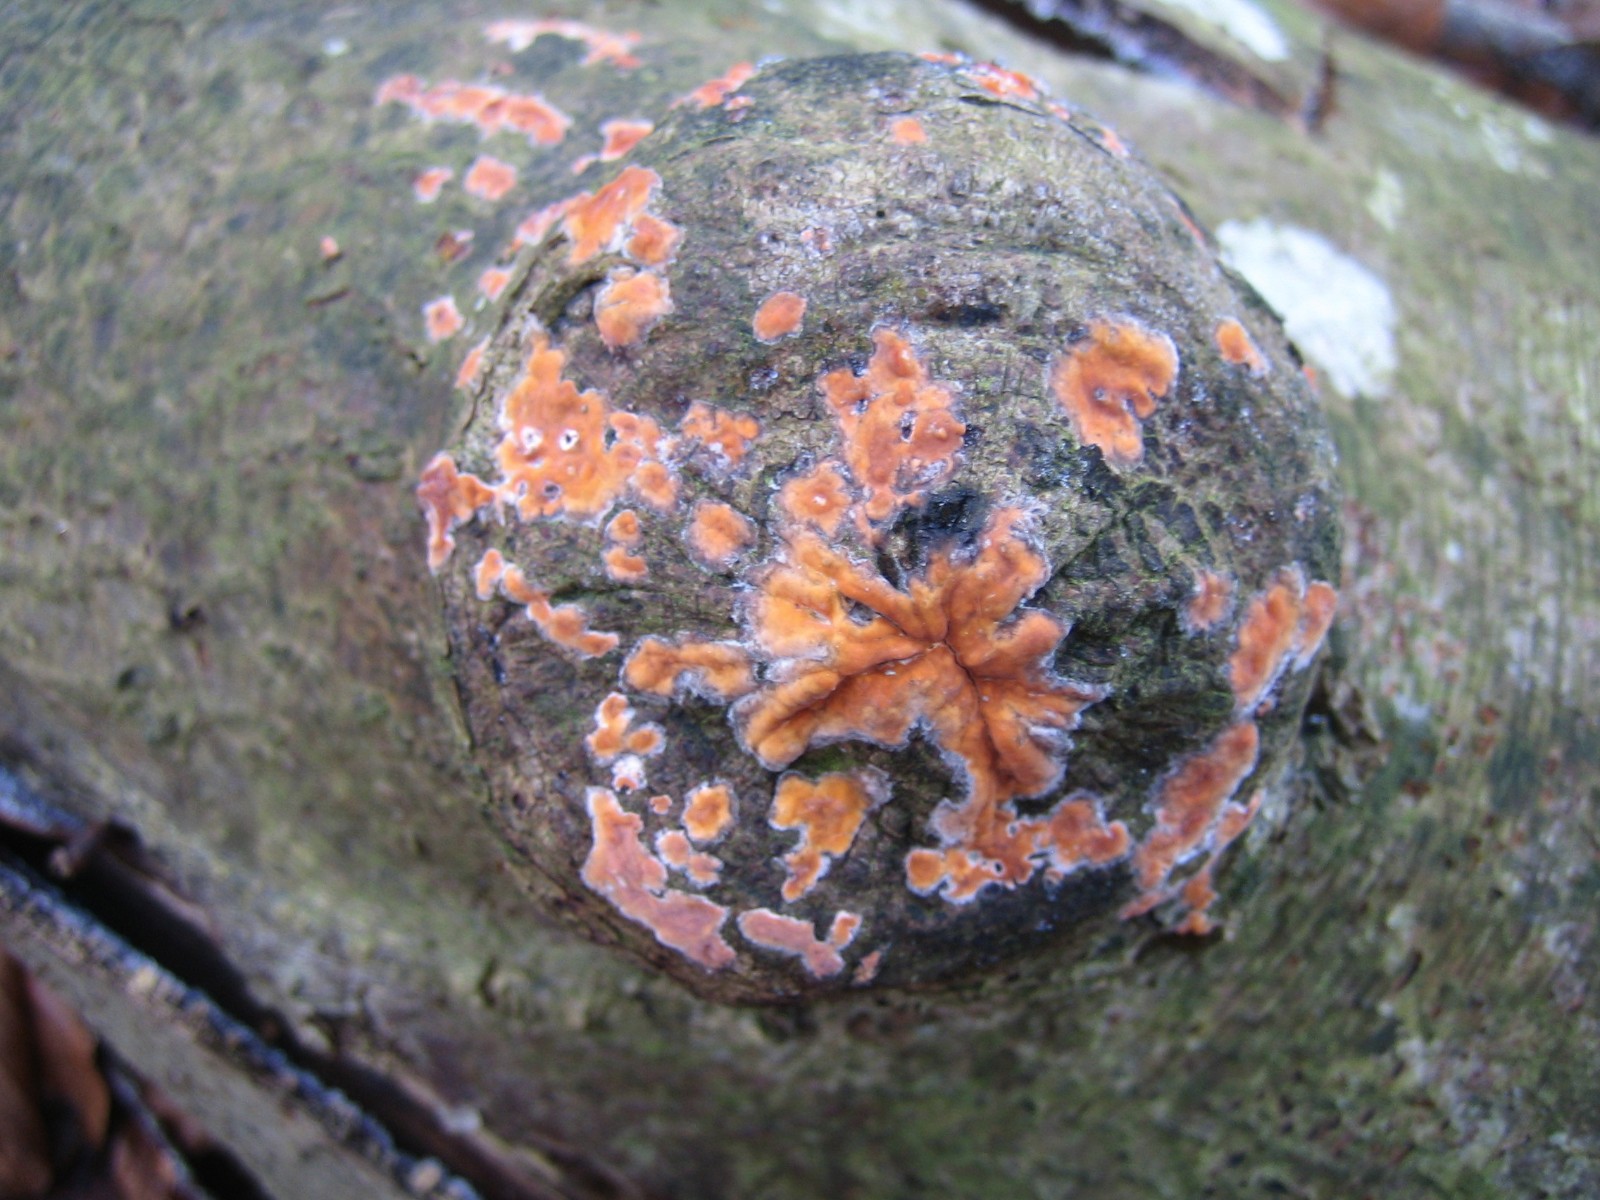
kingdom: Fungi
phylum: Basidiomycota
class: Agaricomycetes
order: Russulales
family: Peniophoraceae
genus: Peniophora
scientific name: Peniophora incarnata
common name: laksefarvet voksskind
